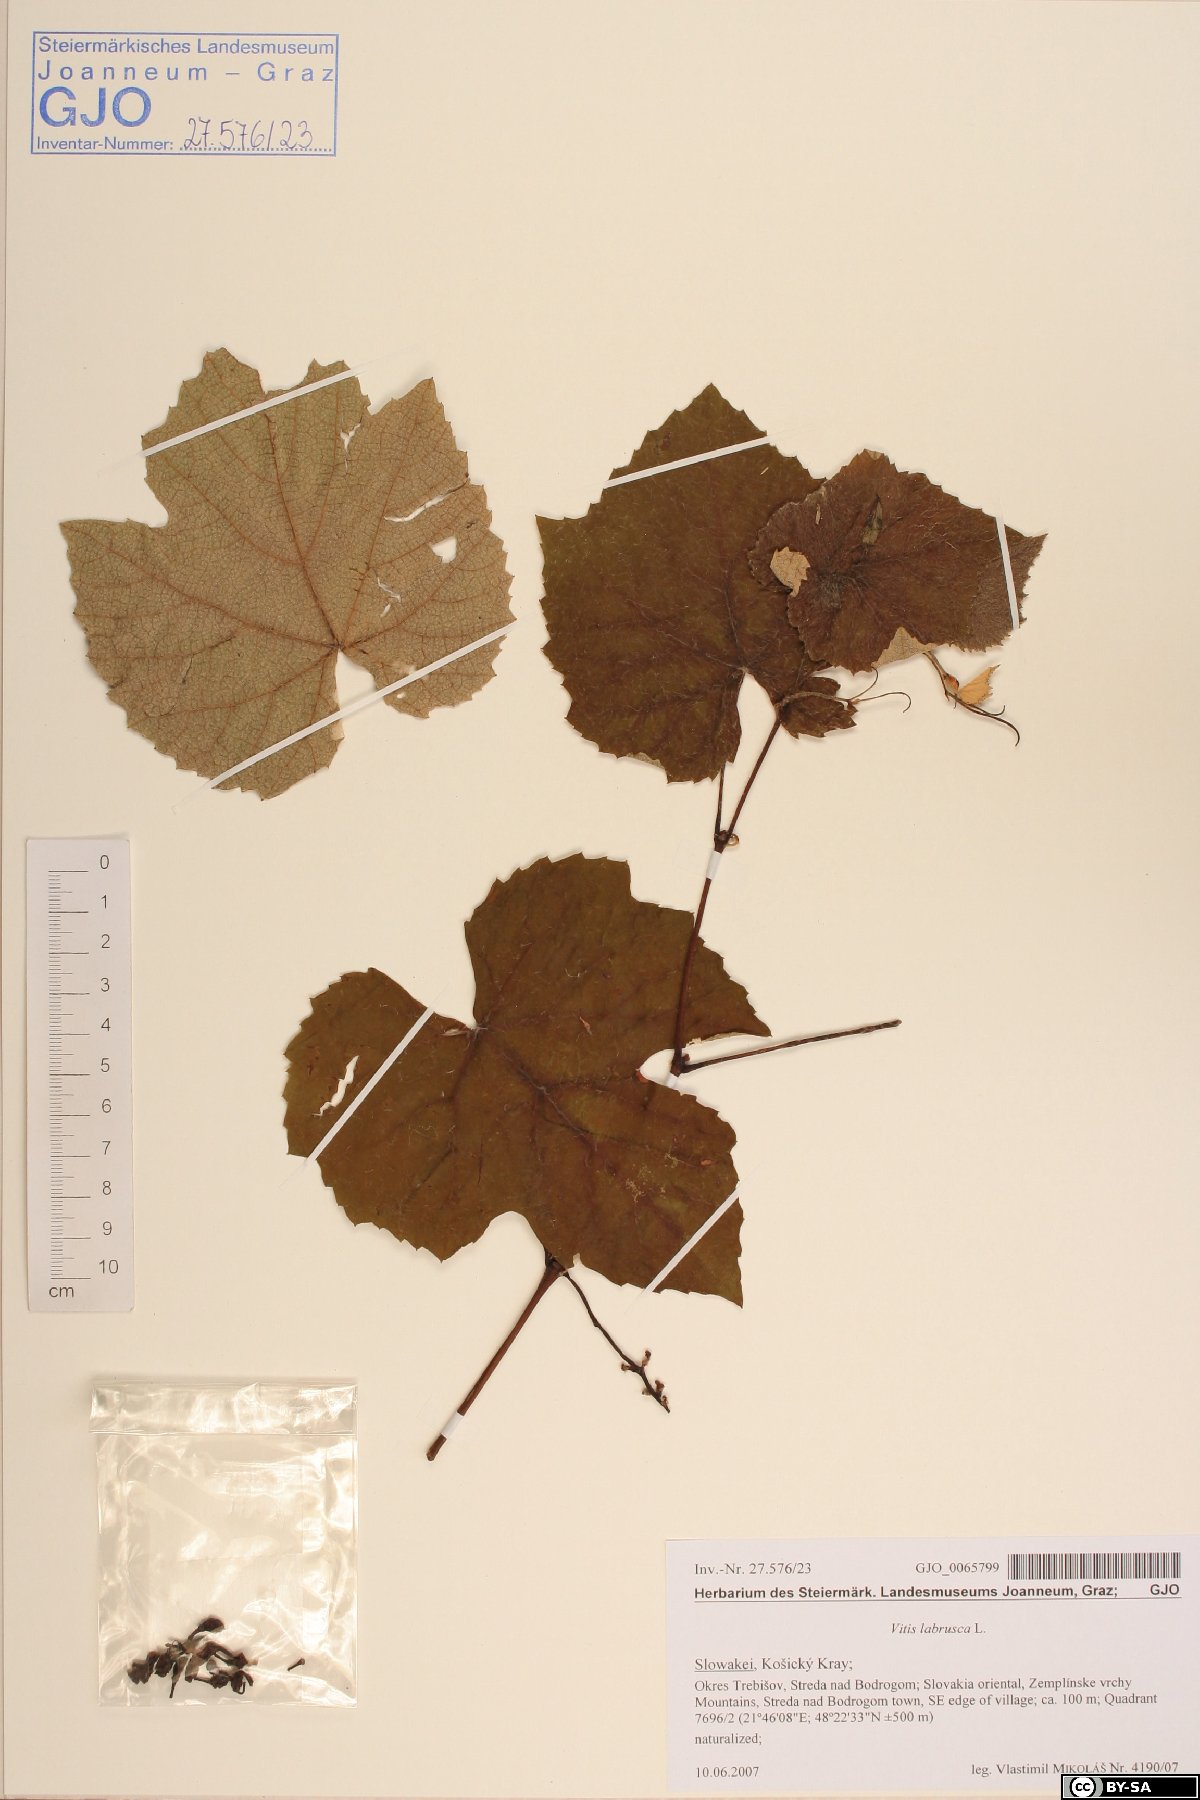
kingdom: Plantae
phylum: Tracheophyta
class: Magnoliopsida
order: Vitales
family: Vitaceae
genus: Vitis
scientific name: Vitis labrusca
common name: Concord grape
